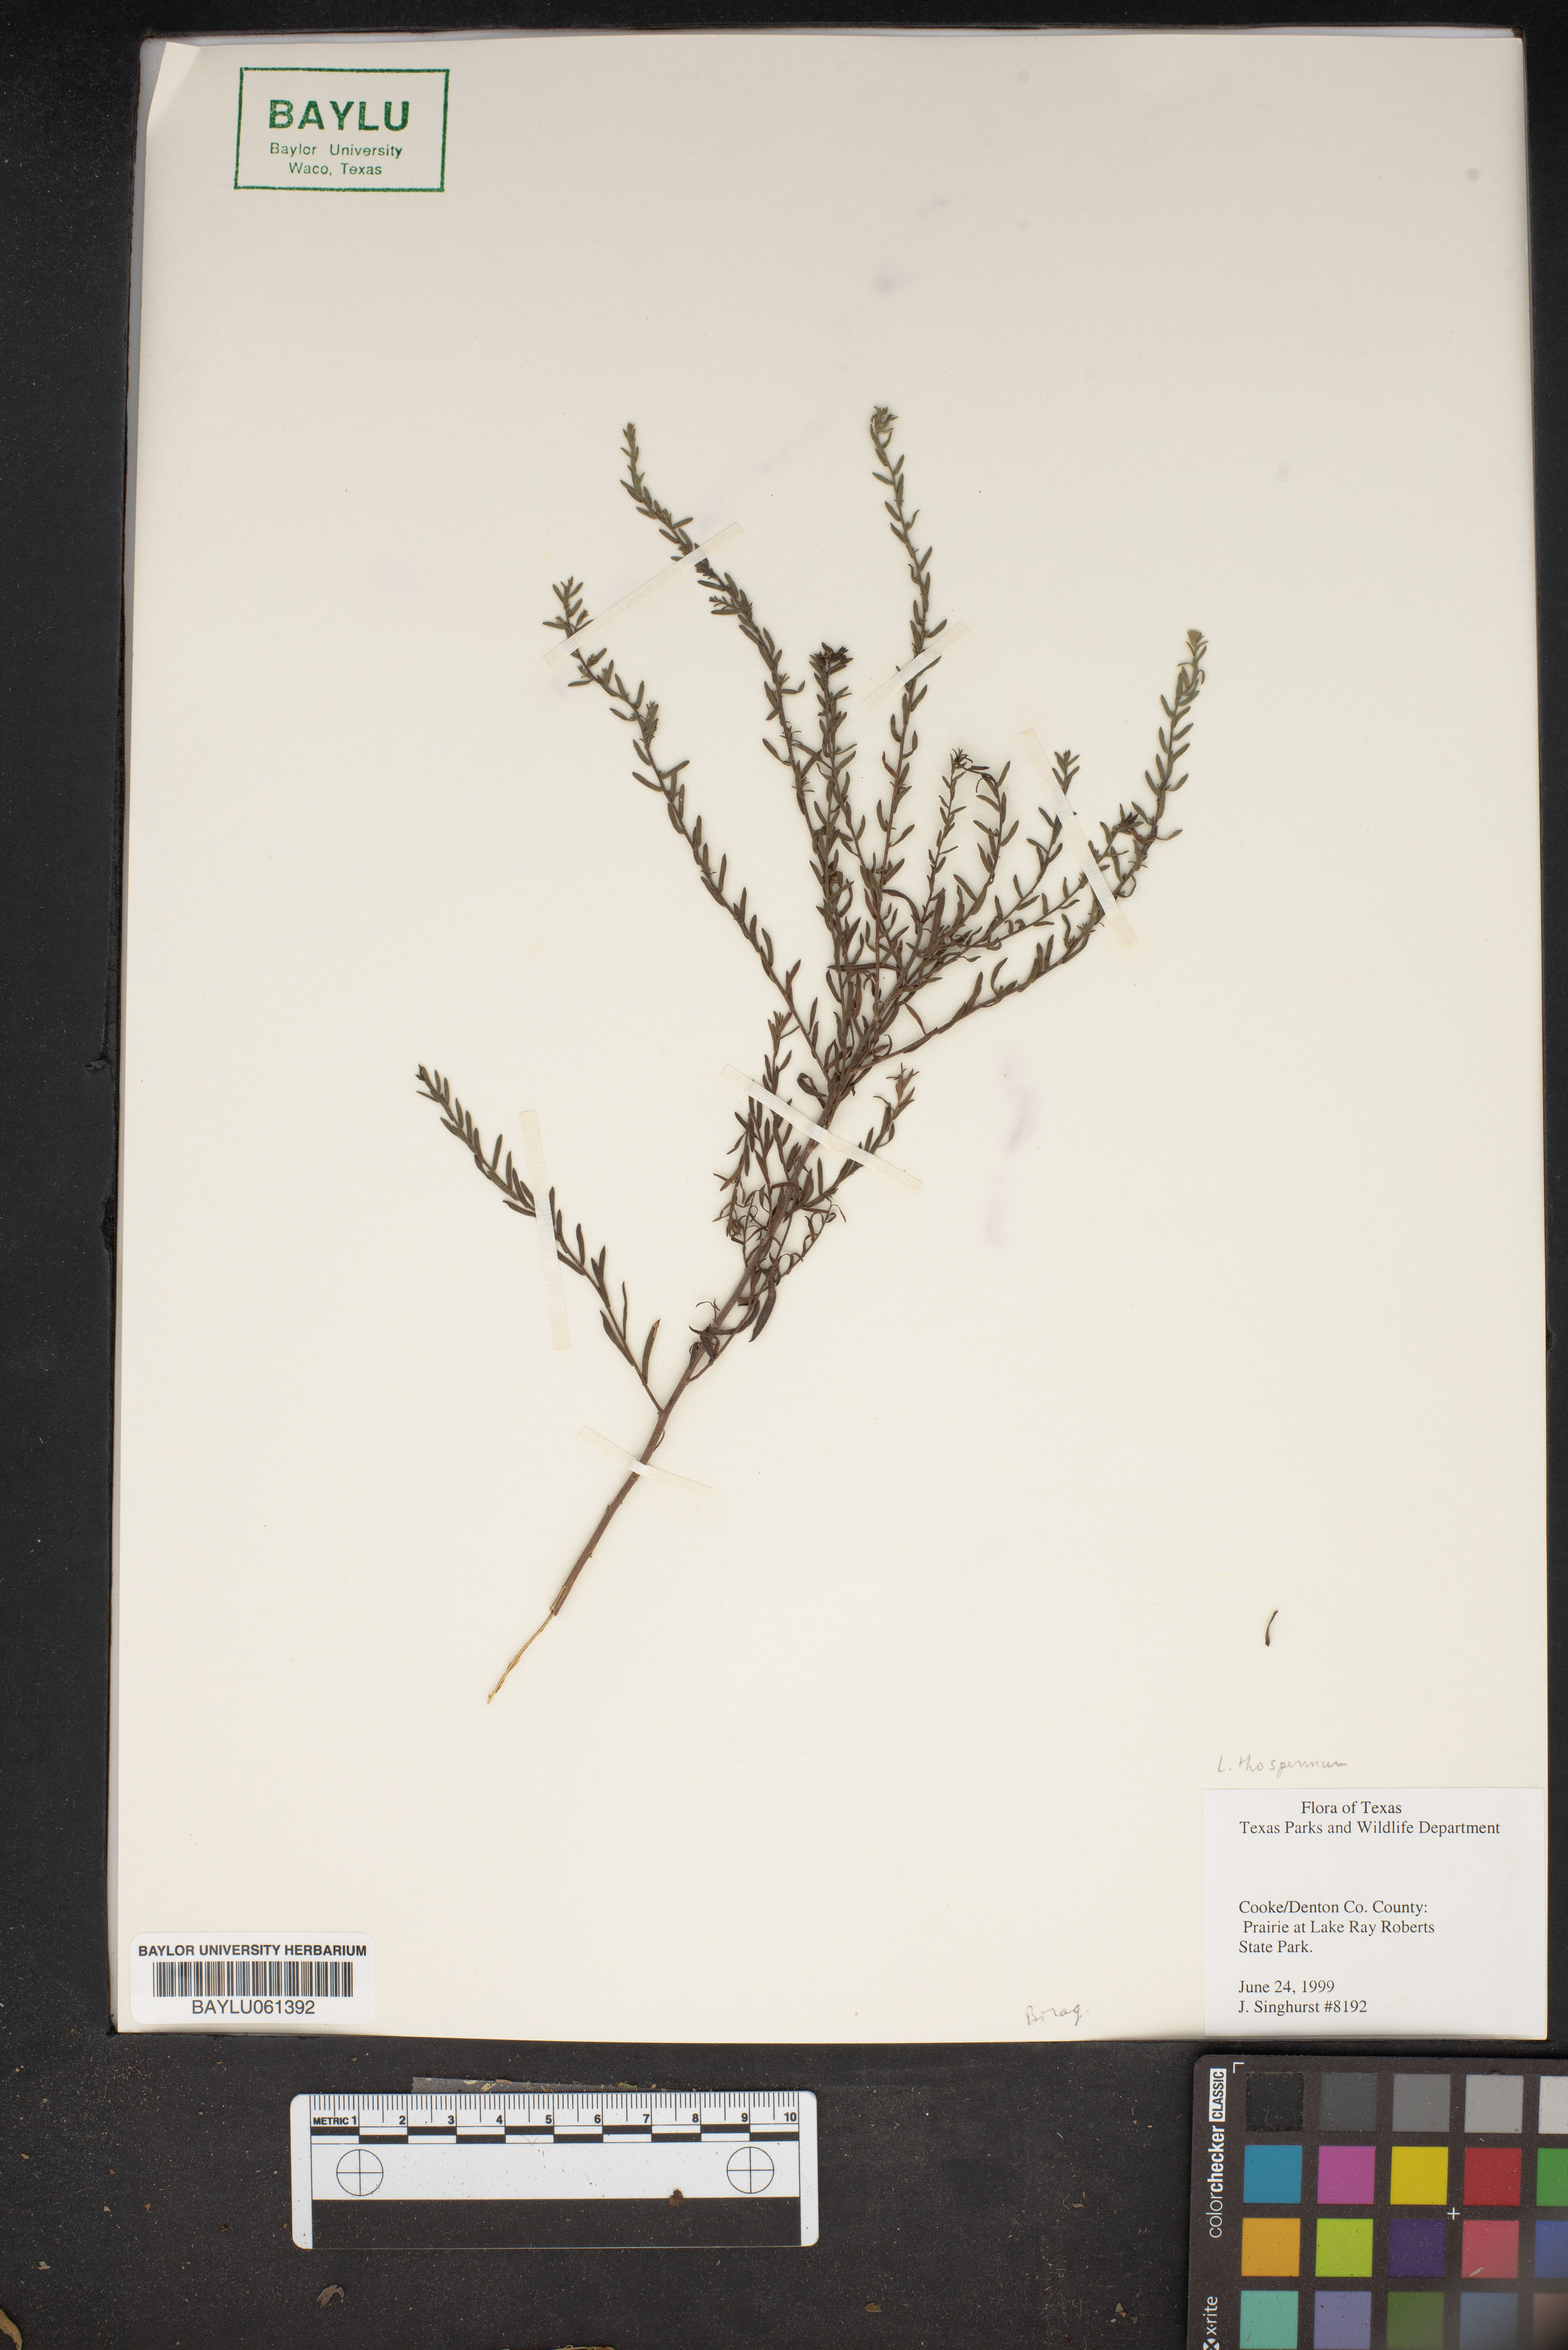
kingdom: Plantae
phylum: Tracheophyta
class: Magnoliopsida
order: Boraginales
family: Boraginaceae
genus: Lithospermum
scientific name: Lithospermum
